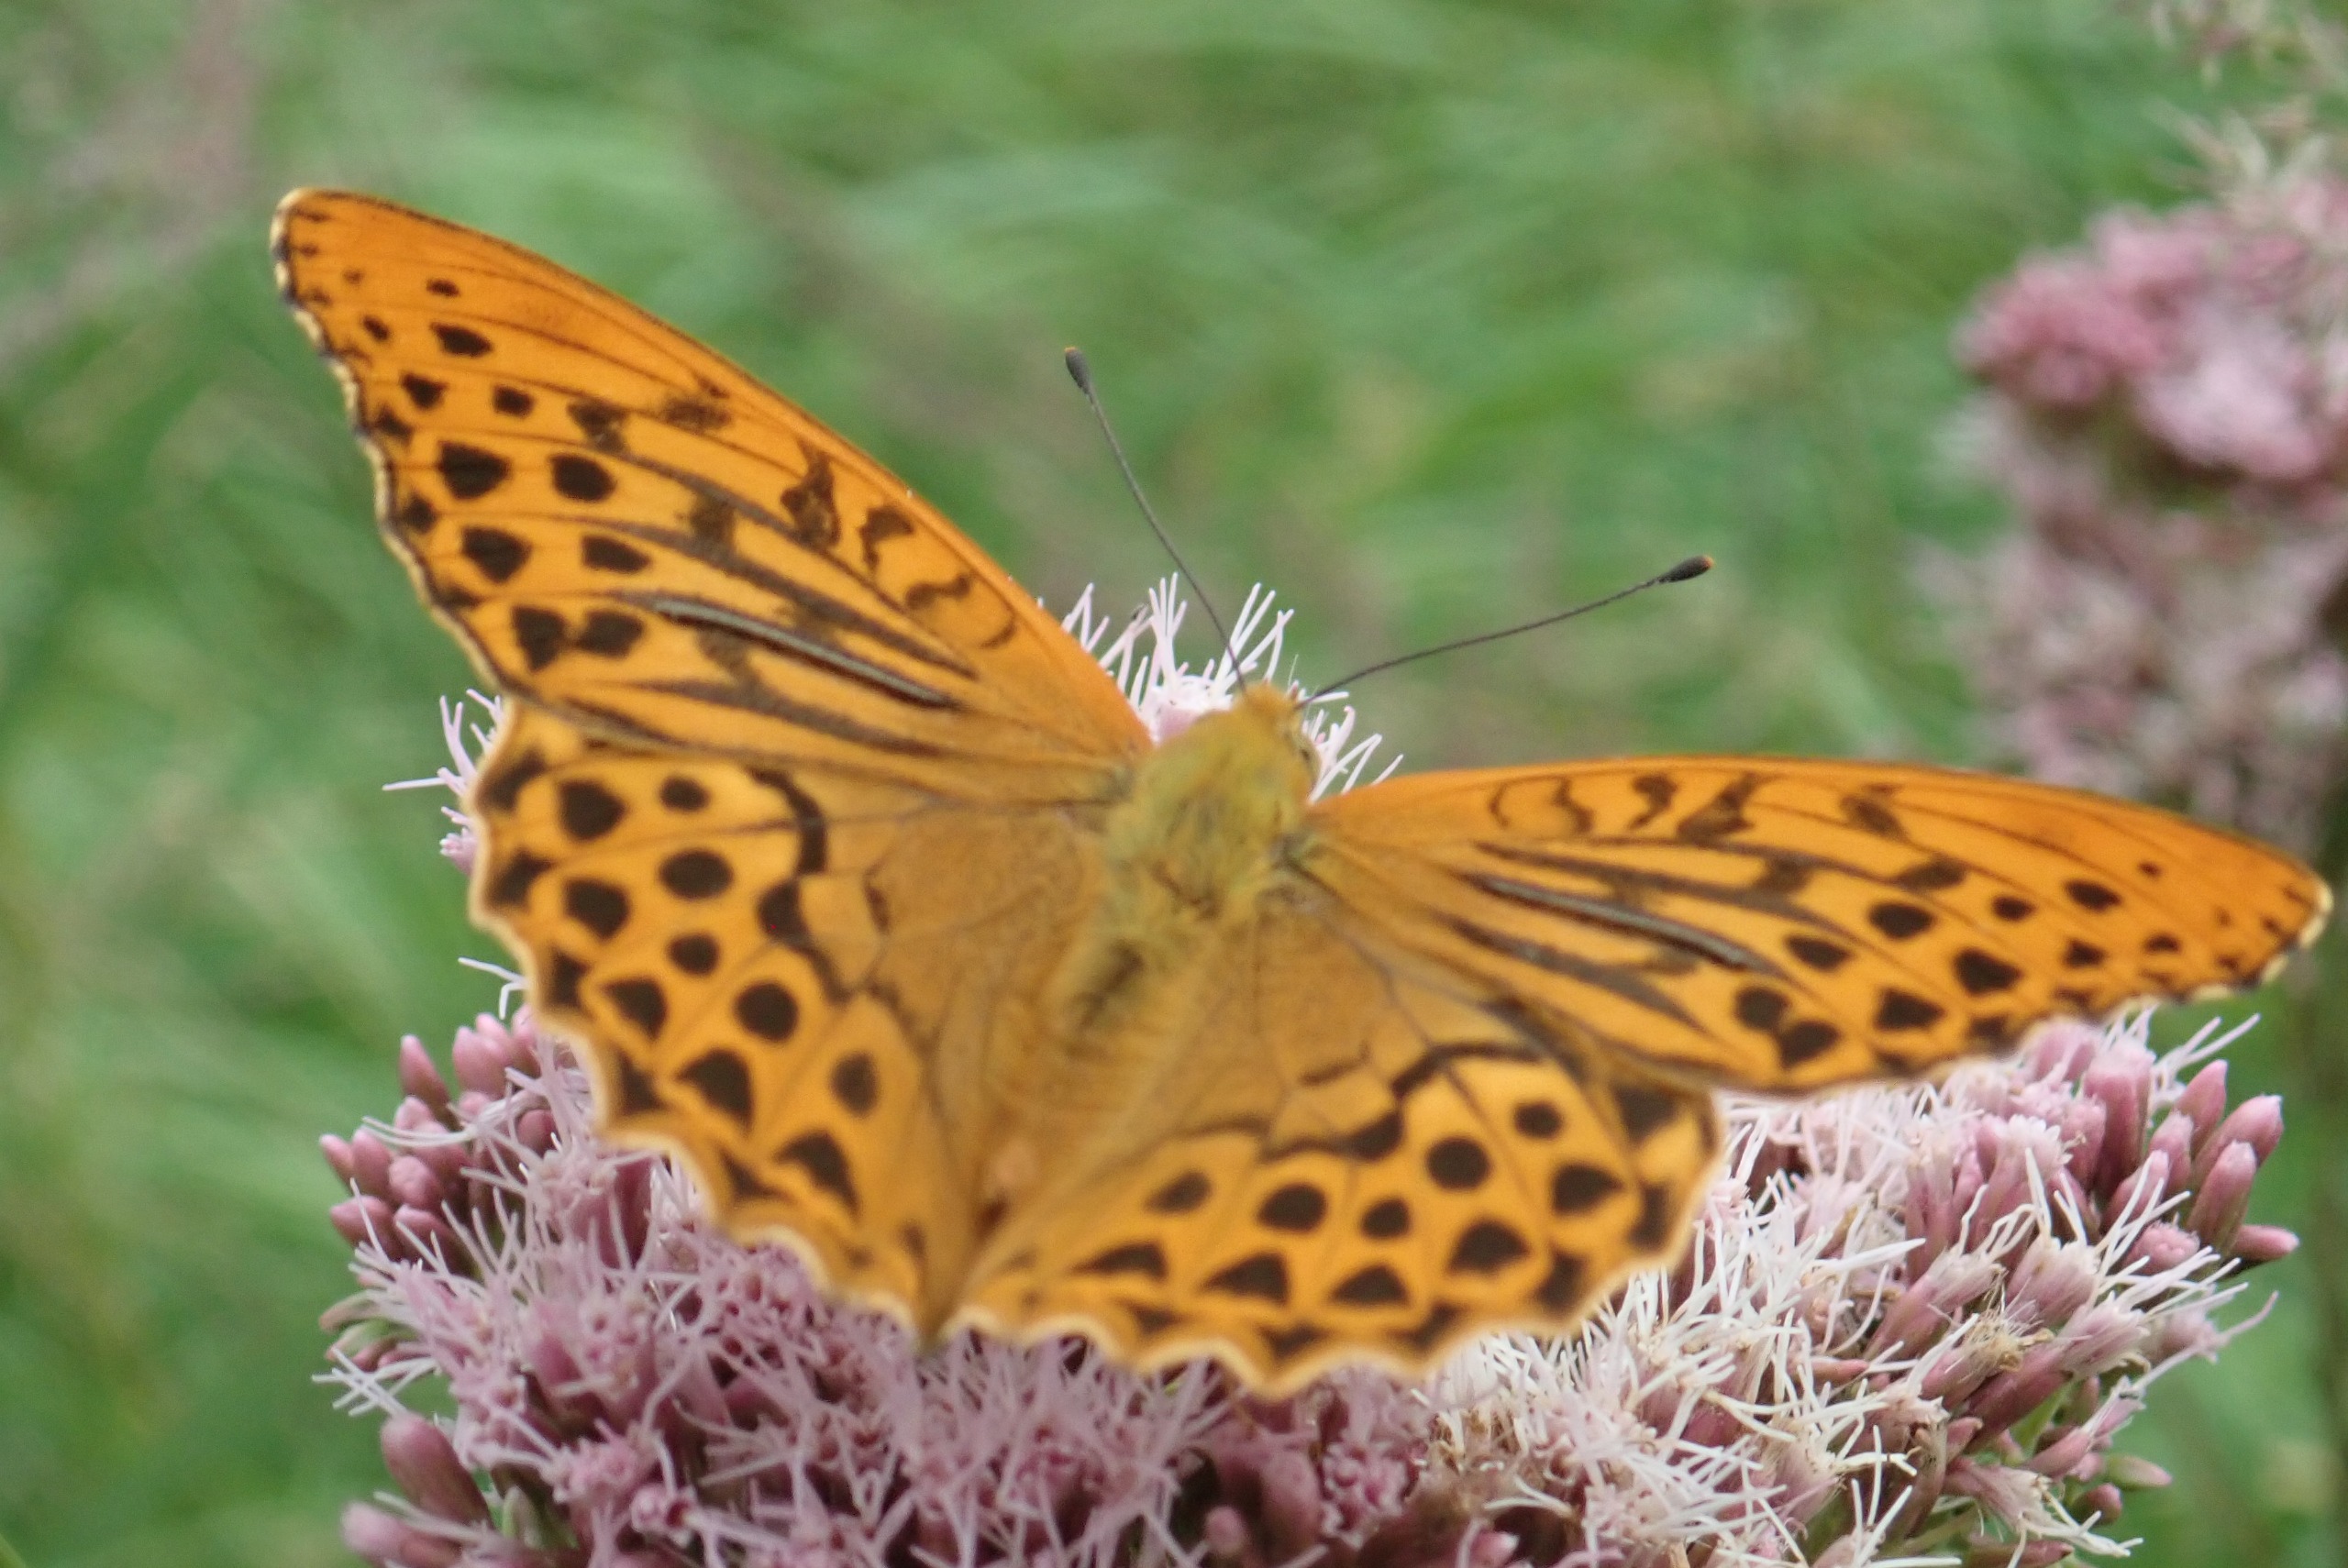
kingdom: Animalia
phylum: Arthropoda
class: Insecta
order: Lepidoptera
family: Nymphalidae
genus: Argynnis
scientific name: Argynnis paphia
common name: Kejserkåbe
